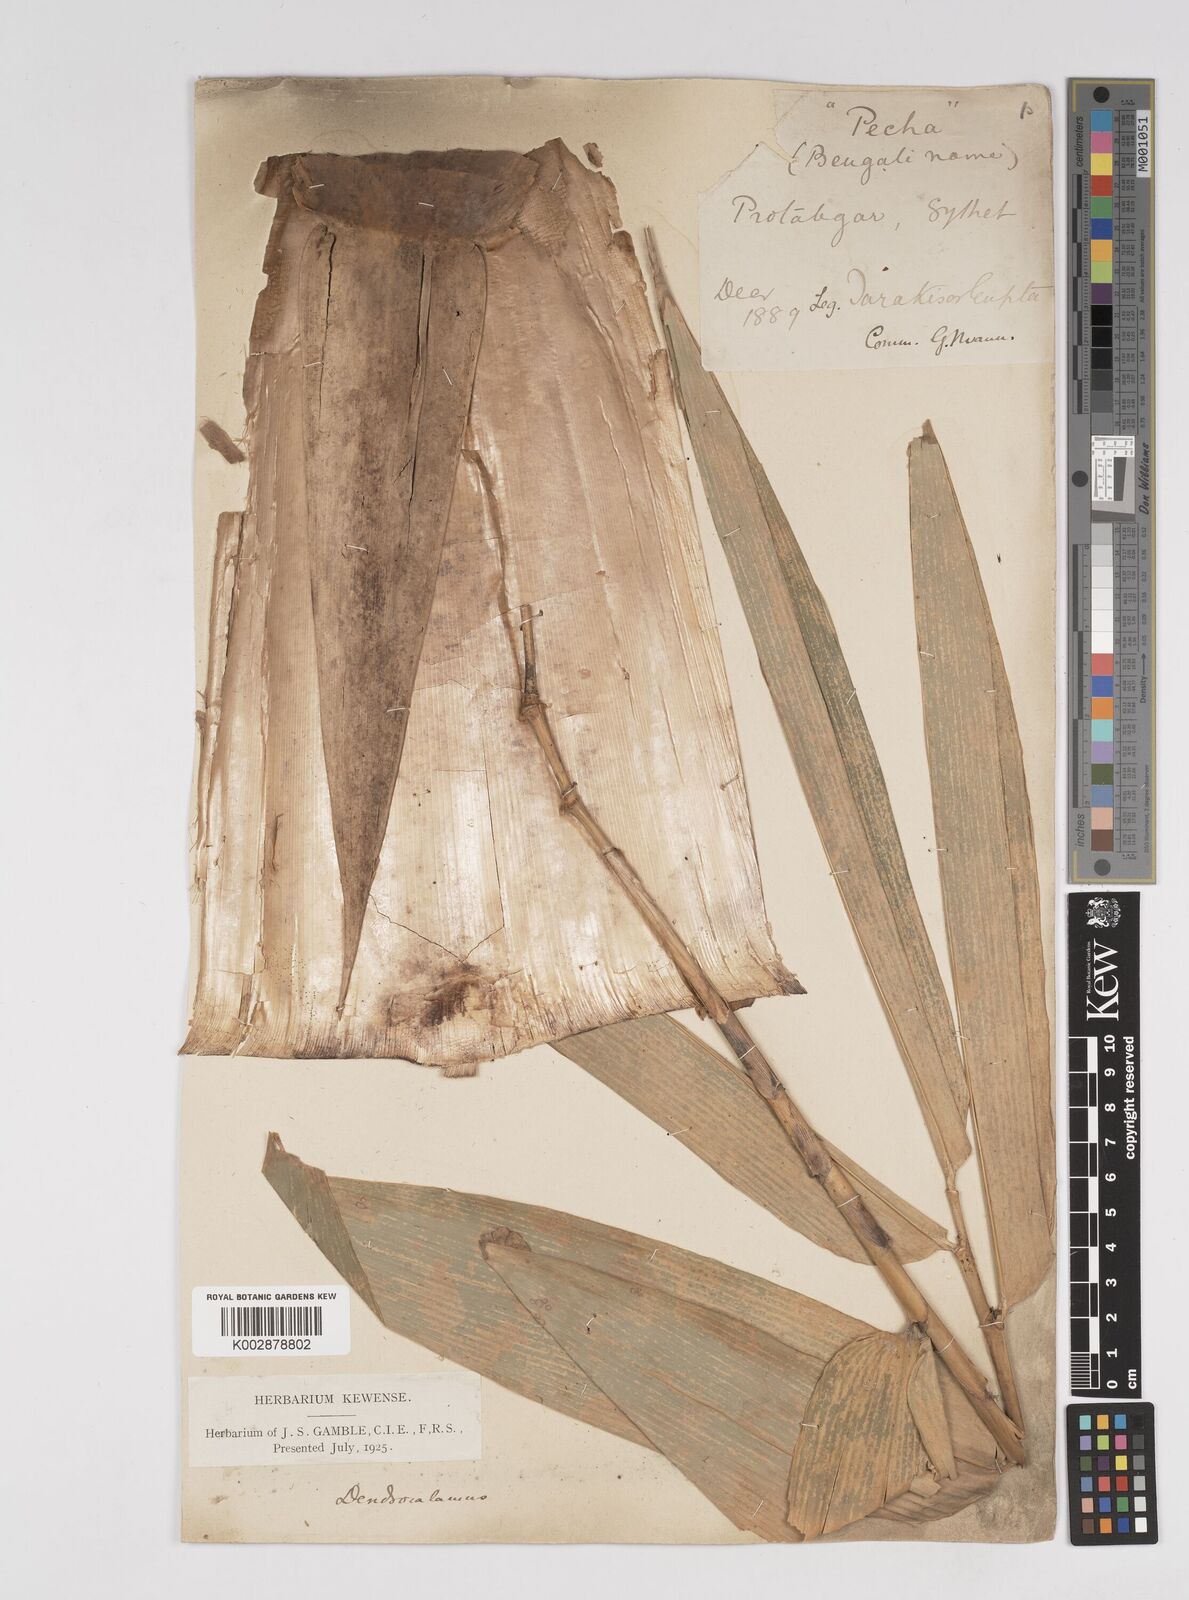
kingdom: Plantae
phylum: Tracheophyta
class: Liliopsida
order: Poales
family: Poaceae
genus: Dendrocalamus
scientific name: Dendrocalamus hamiltonii
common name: Tama bamboo
